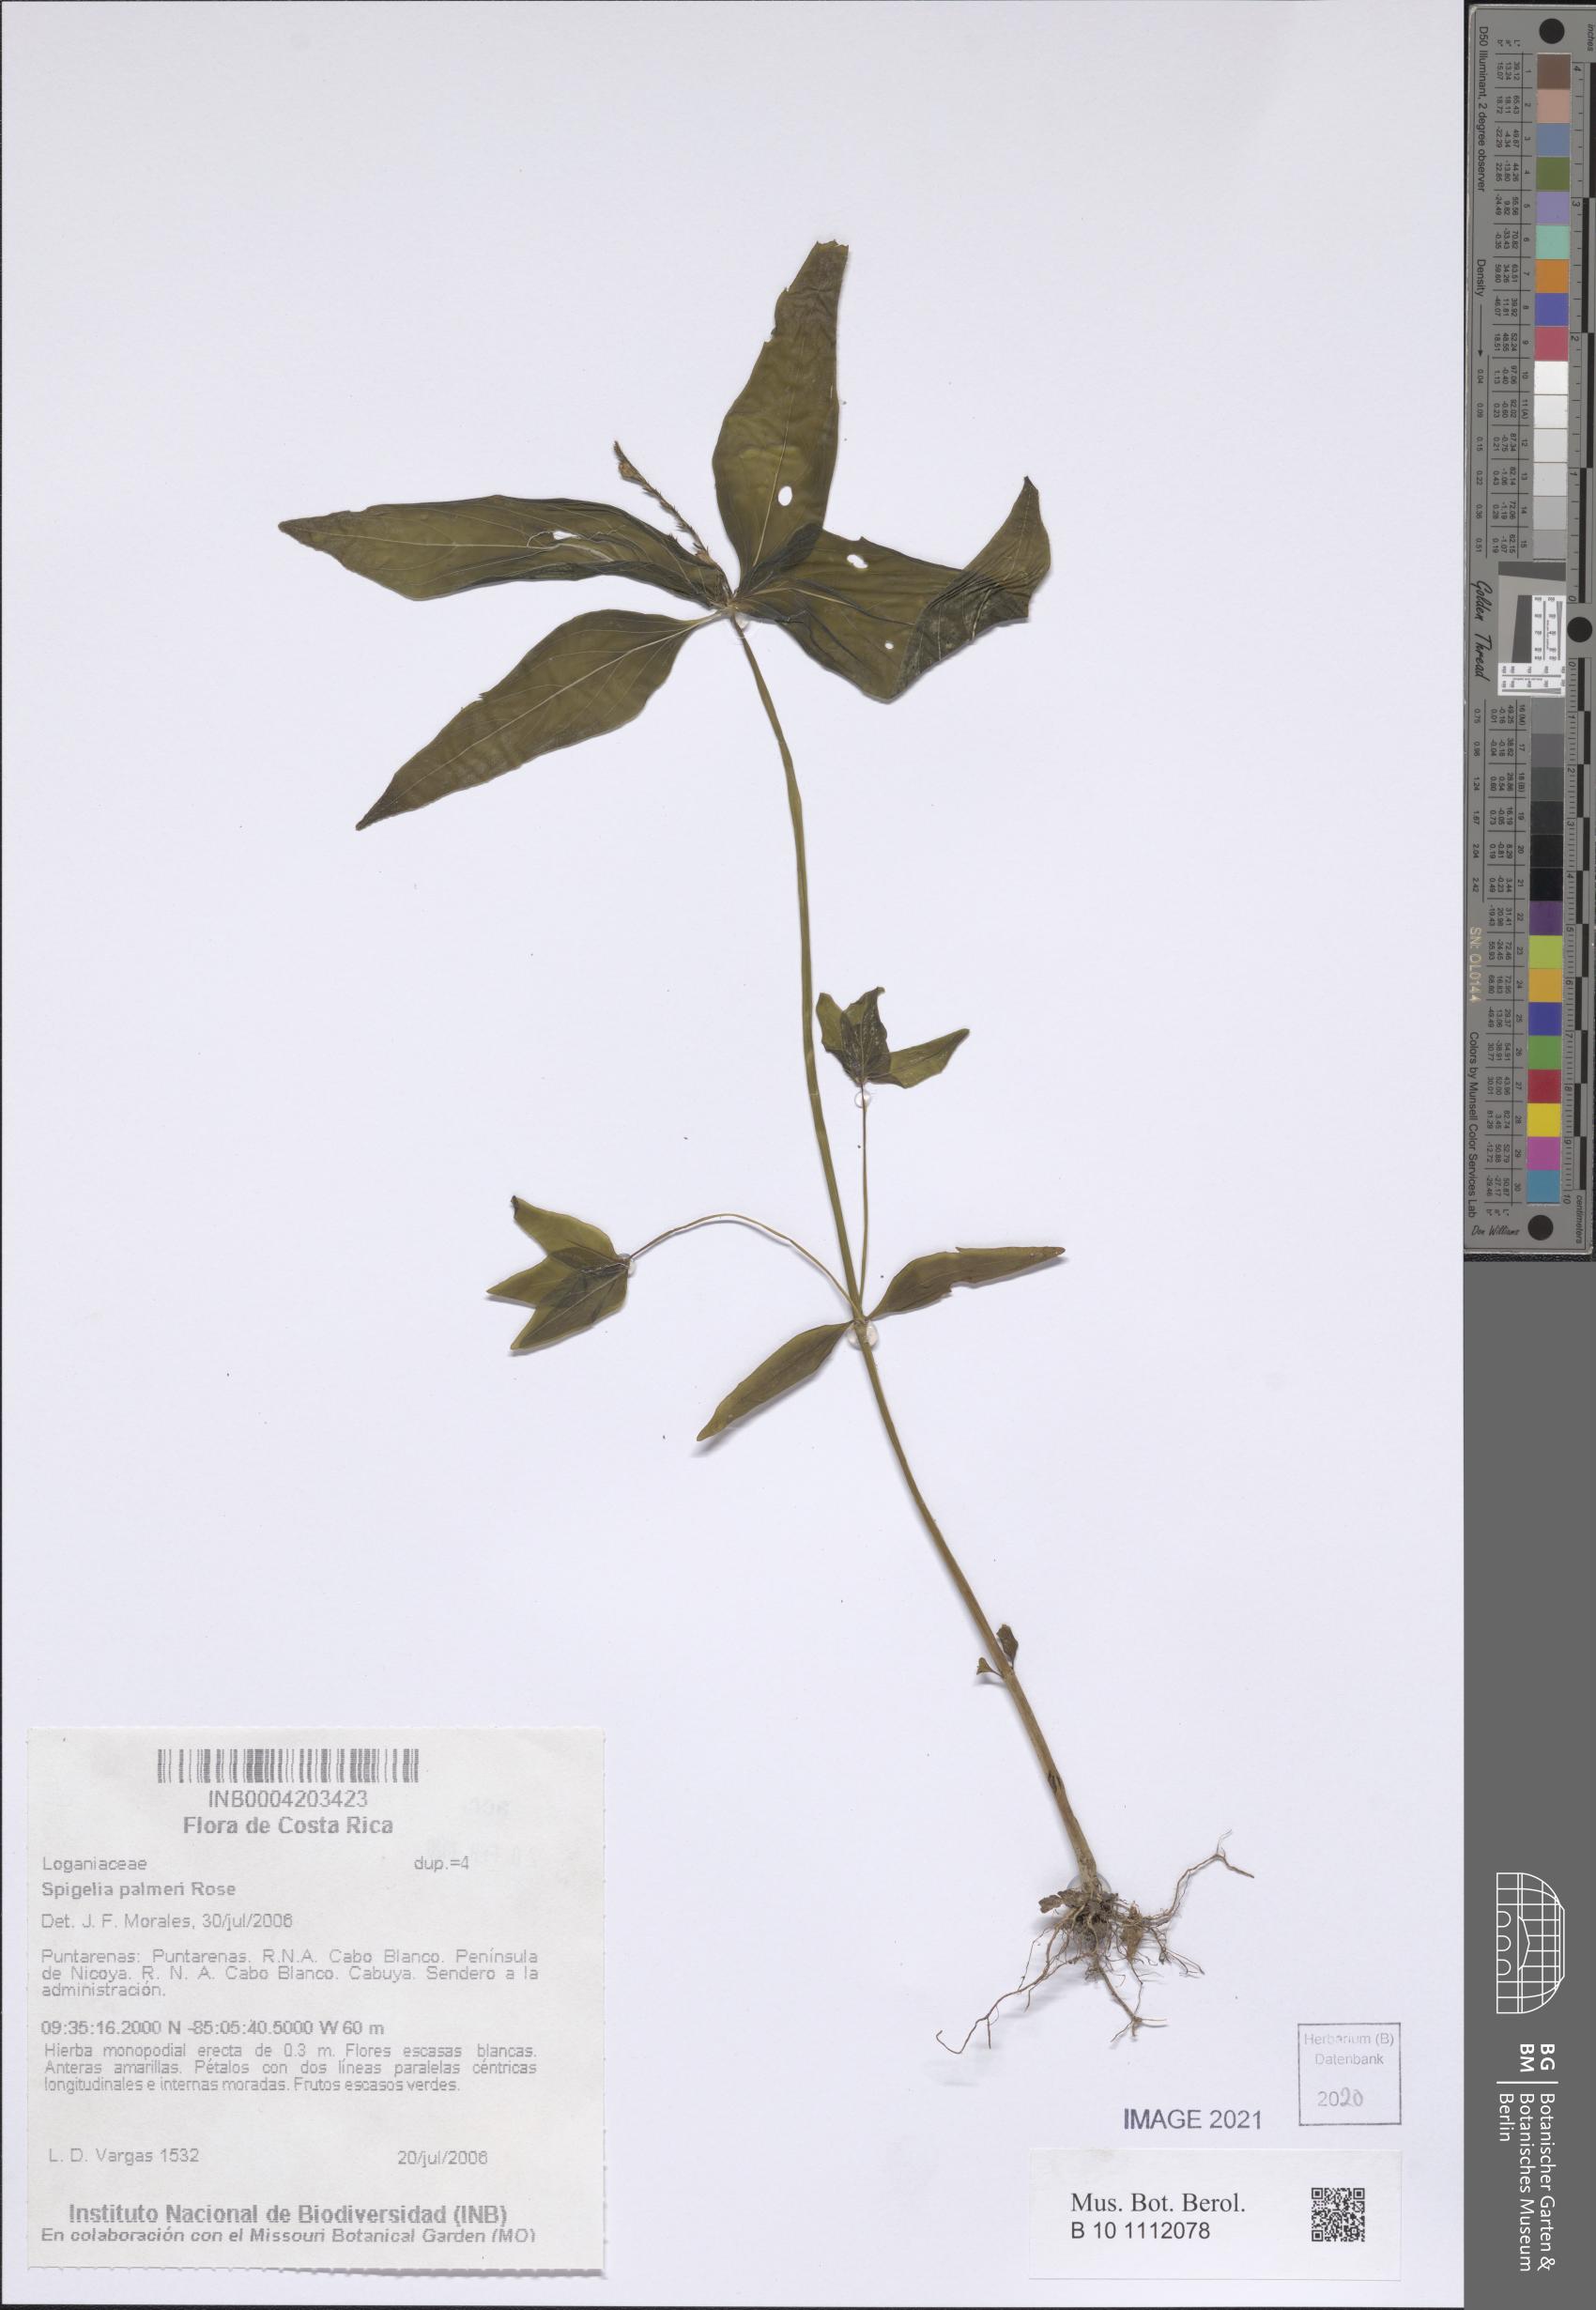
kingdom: Plantae
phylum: Tracheophyta
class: Magnoliopsida
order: Gentianales
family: Loganiaceae
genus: Spigelia
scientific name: Spigelia humboldtiana
